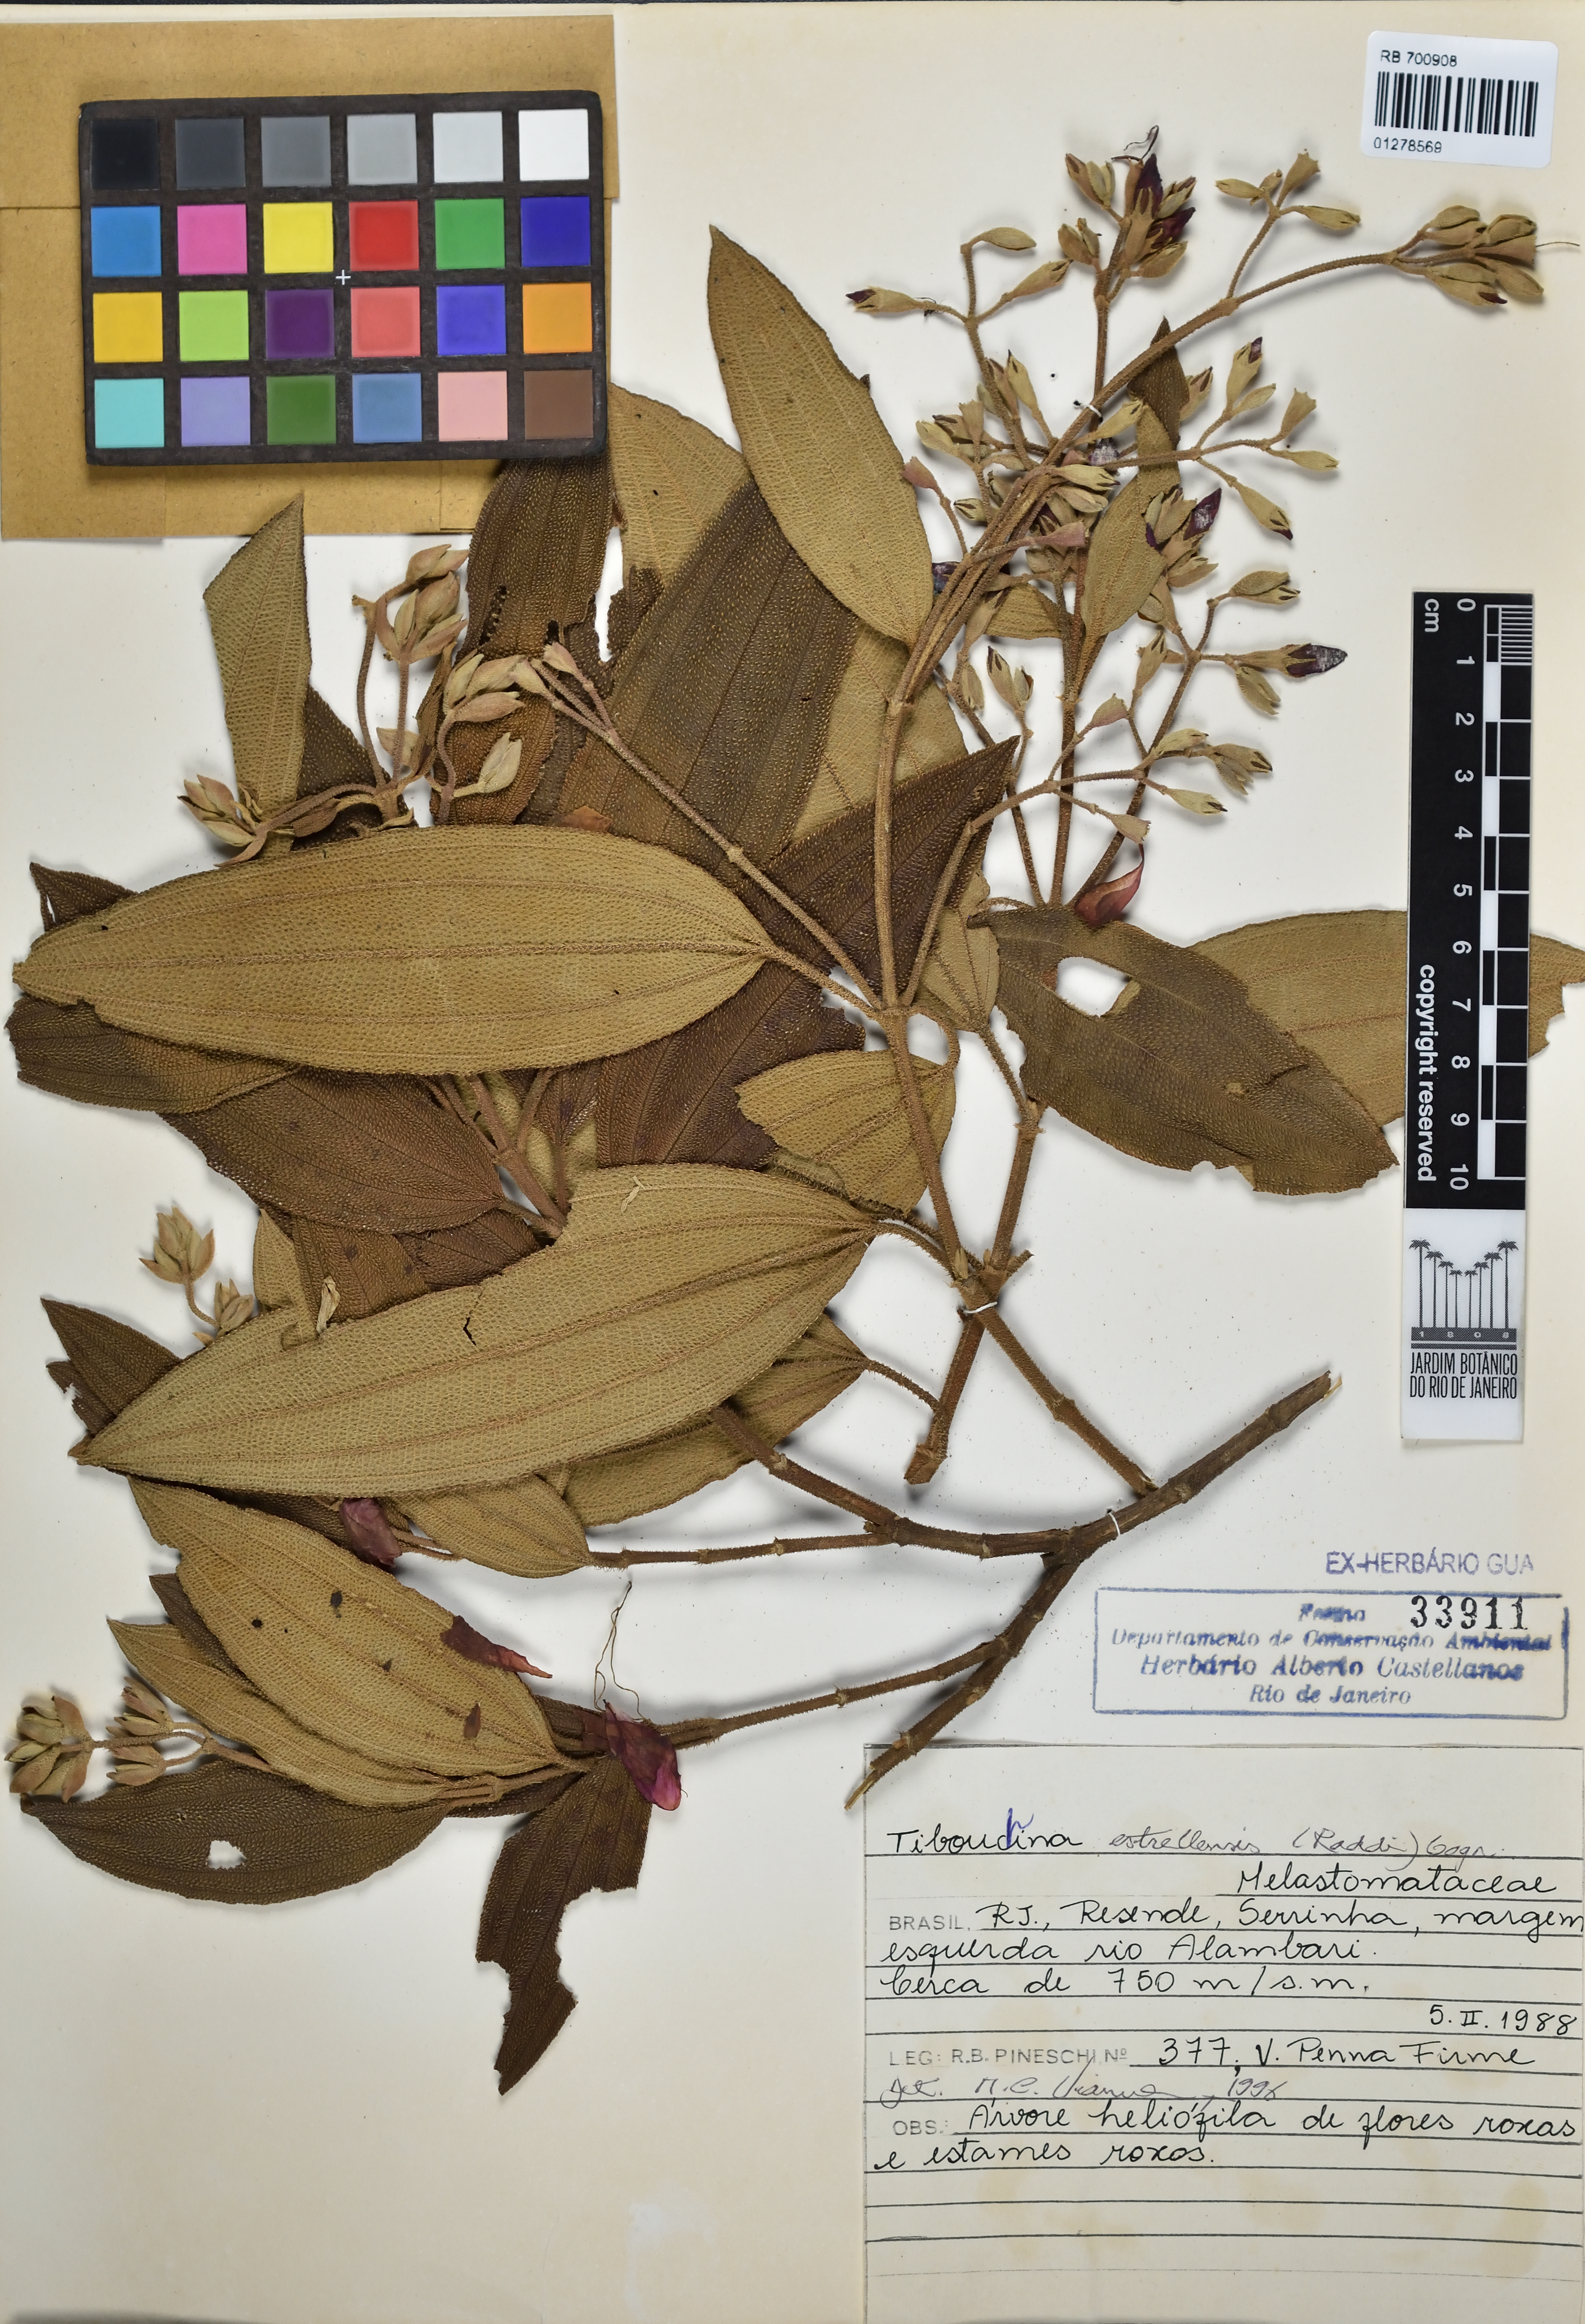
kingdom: Plantae
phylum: Tracheophyta
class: Magnoliopsida
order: Myrtales
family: Melastomataceae
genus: Pleroma
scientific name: Pleroma estrellense
